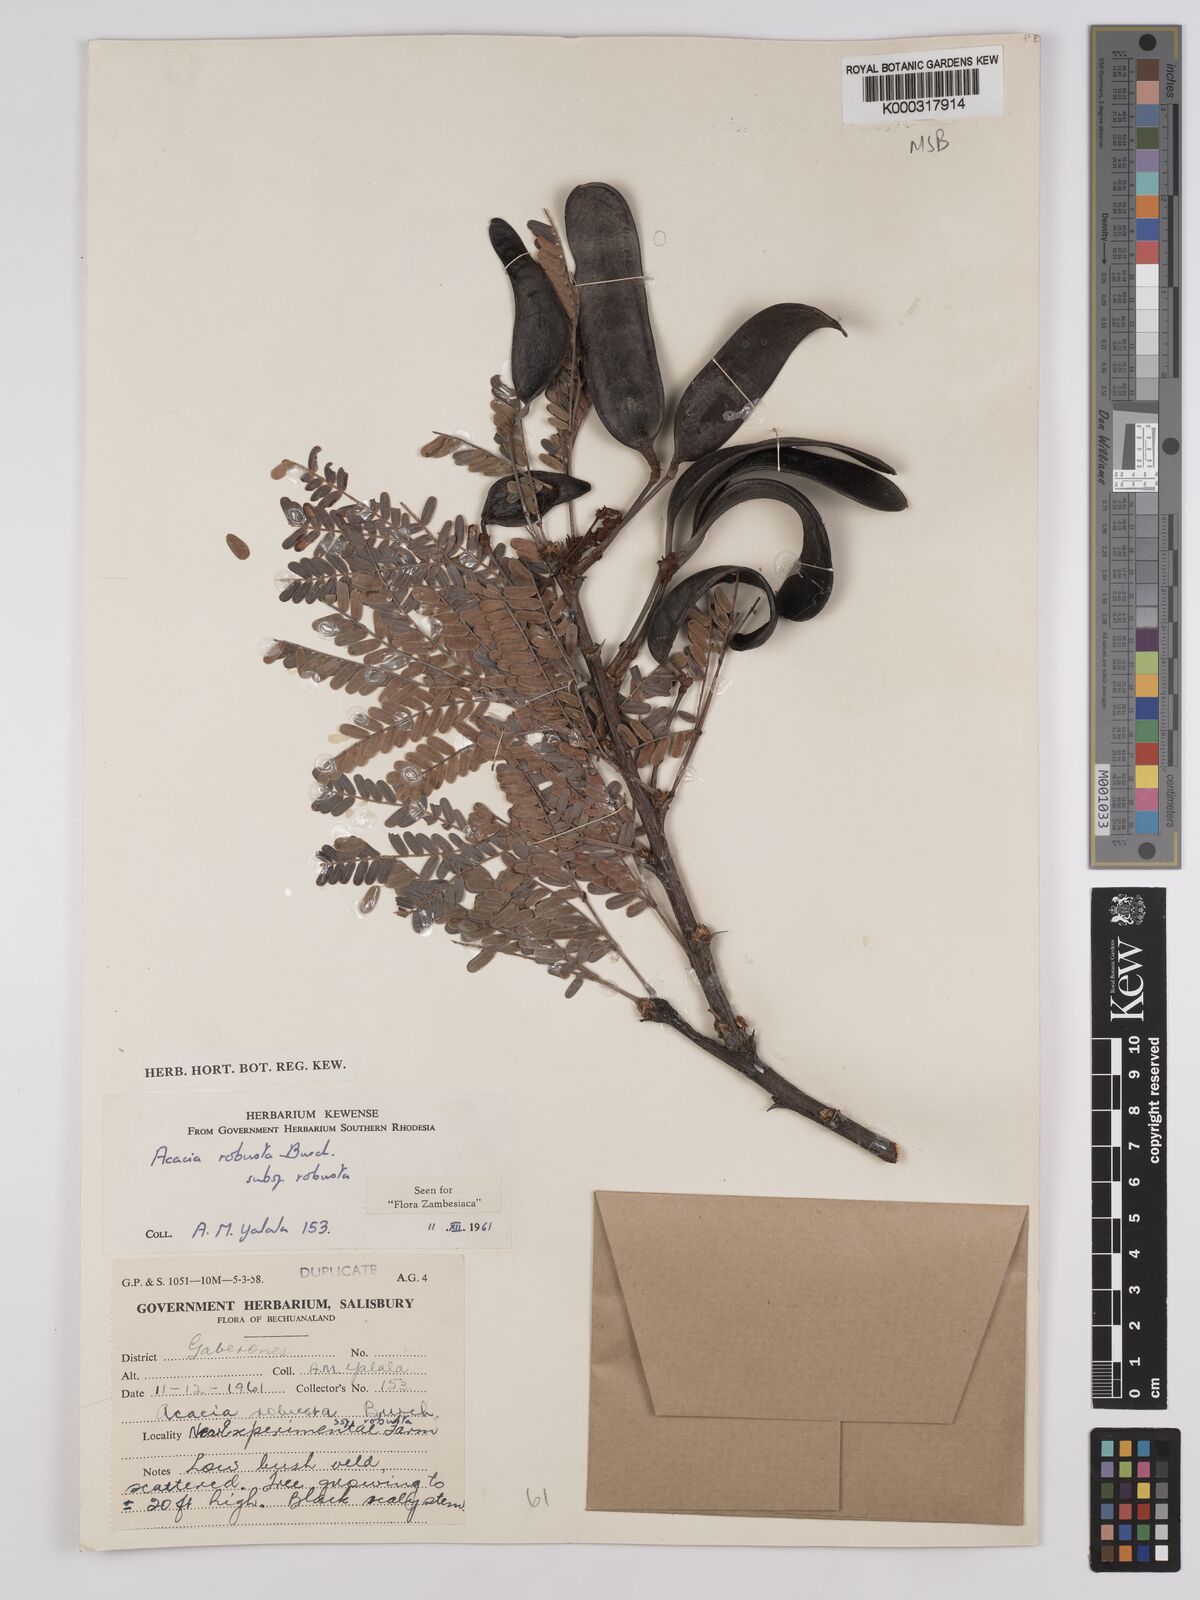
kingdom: Plantae
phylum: Tracheophyta
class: Magnoliopsida
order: Fabales
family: Fabaceae
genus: Vachellia
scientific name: Vachellia robusta
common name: Ankle thorn
